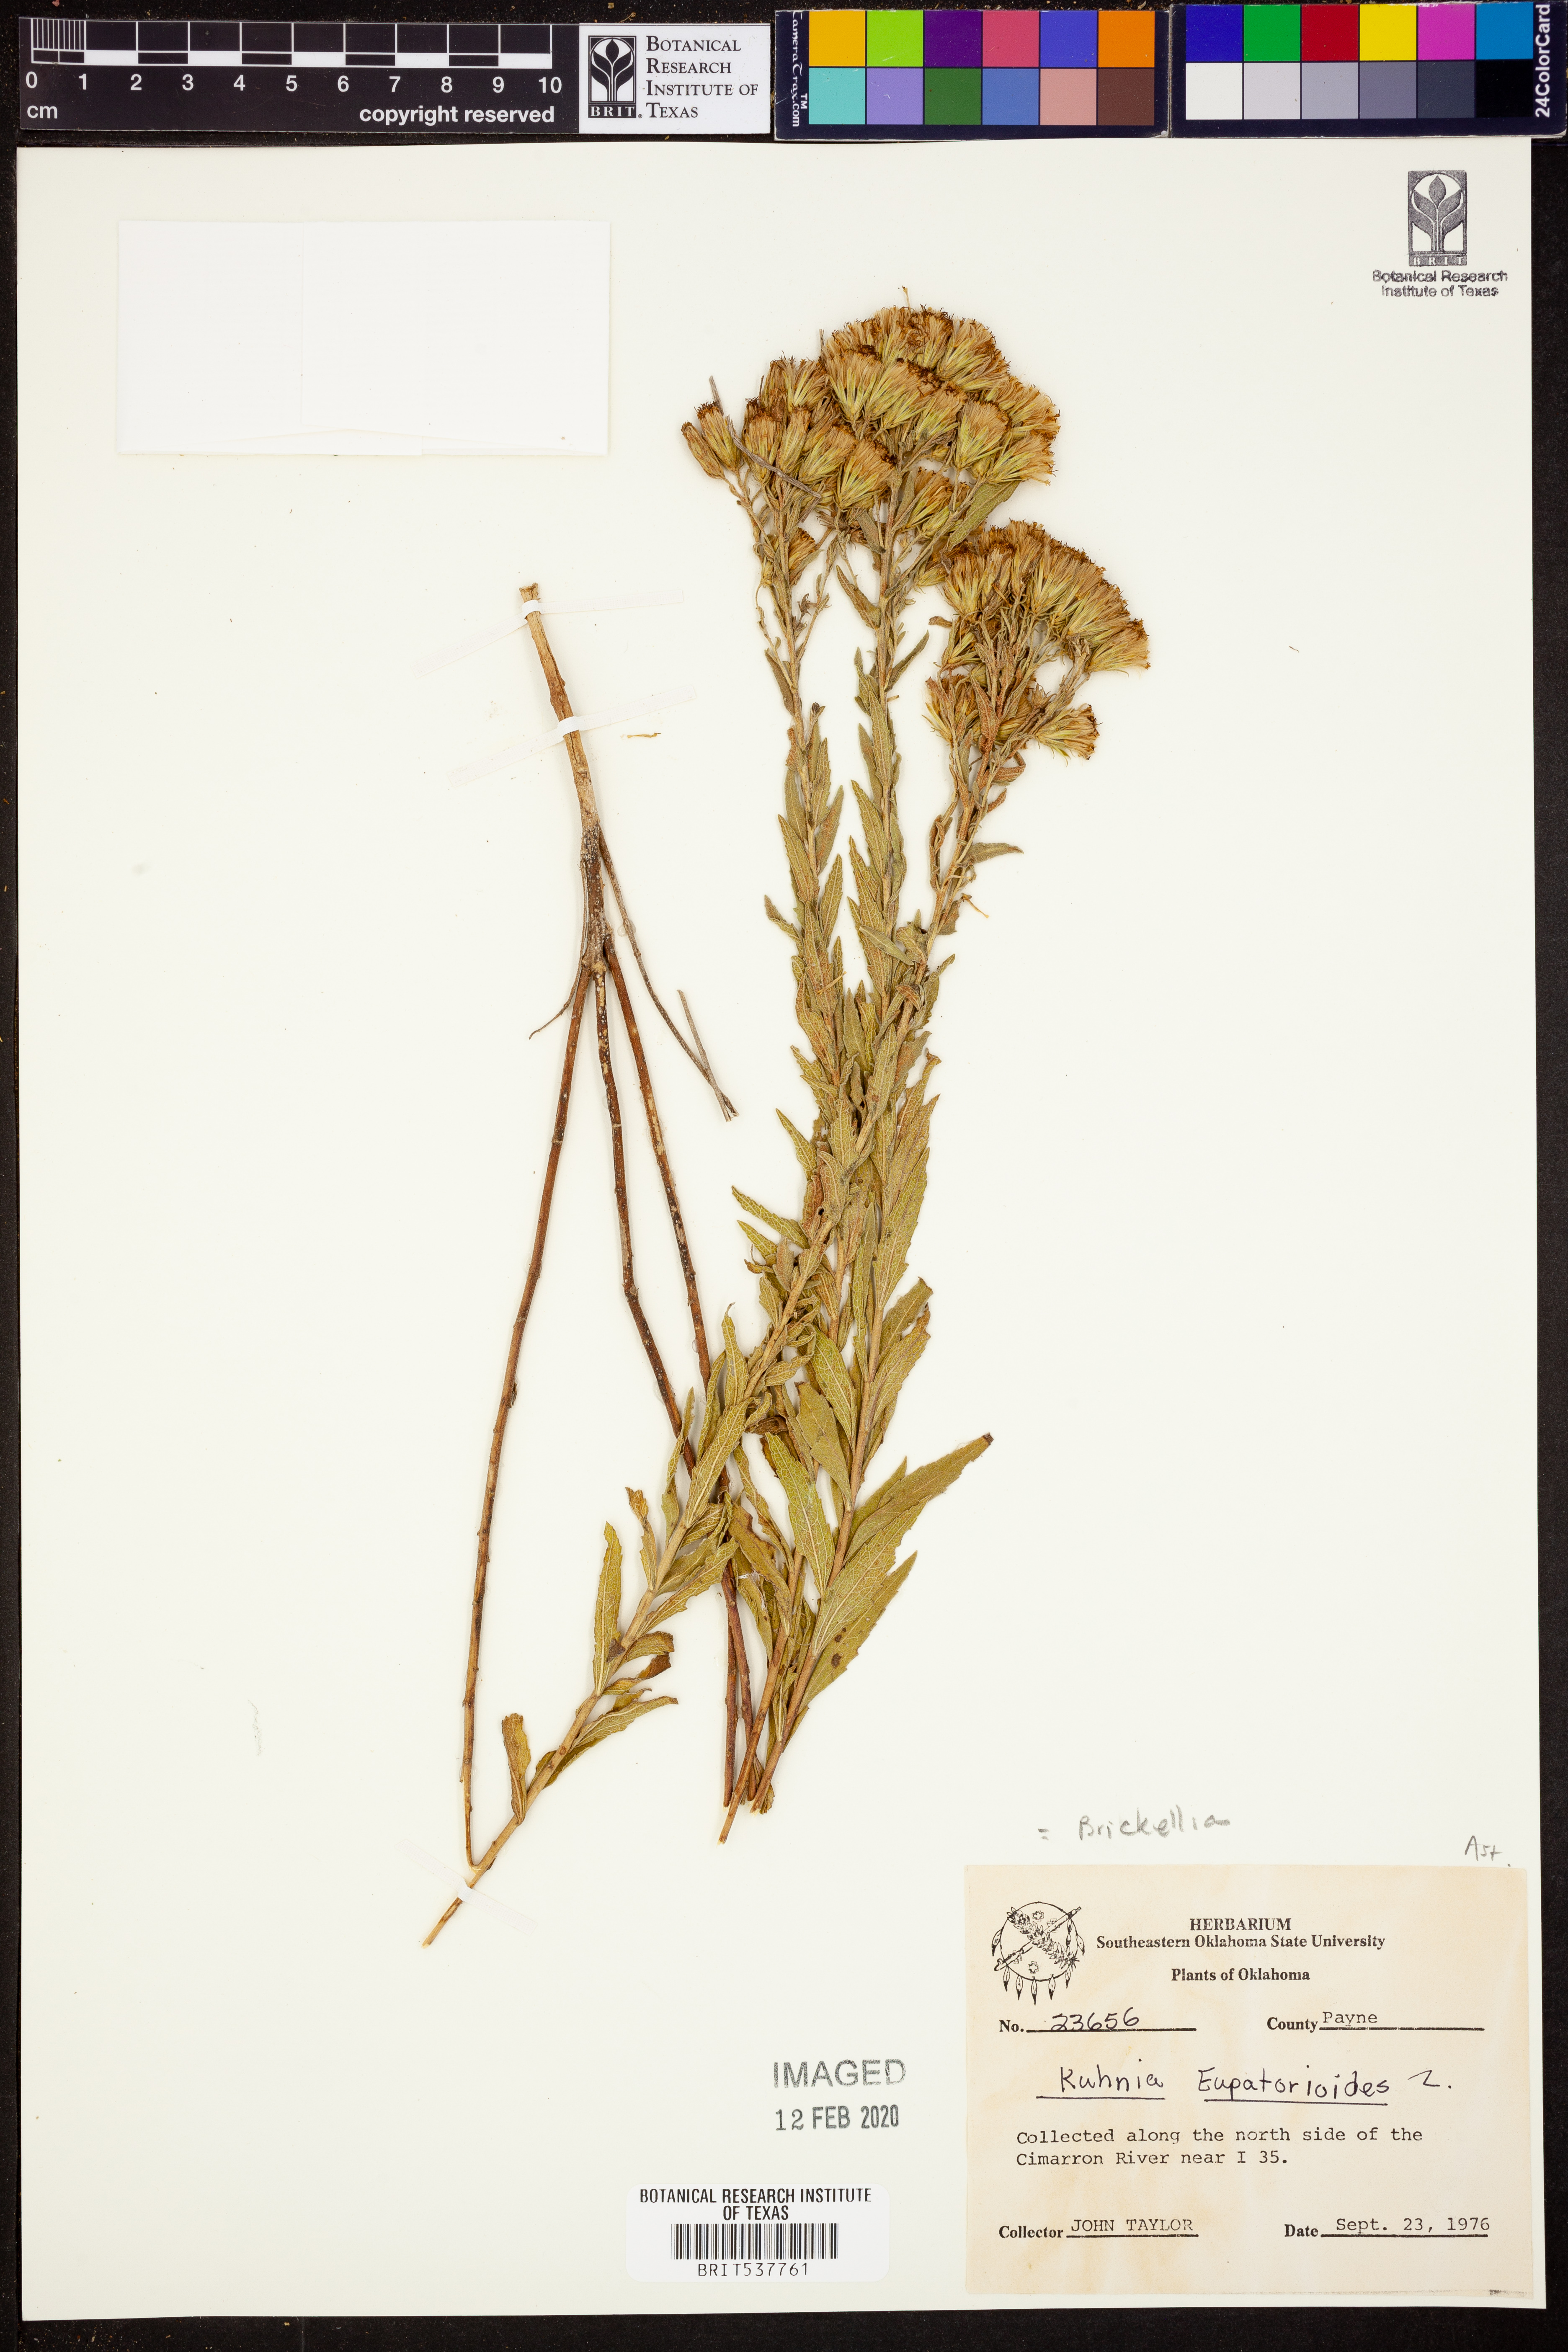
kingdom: Plantae
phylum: Tracheophyta
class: Magnoliopsida
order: Asterales
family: Asteraceae
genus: Brickellia
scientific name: Brickellia eupatorioides
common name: False boneset
